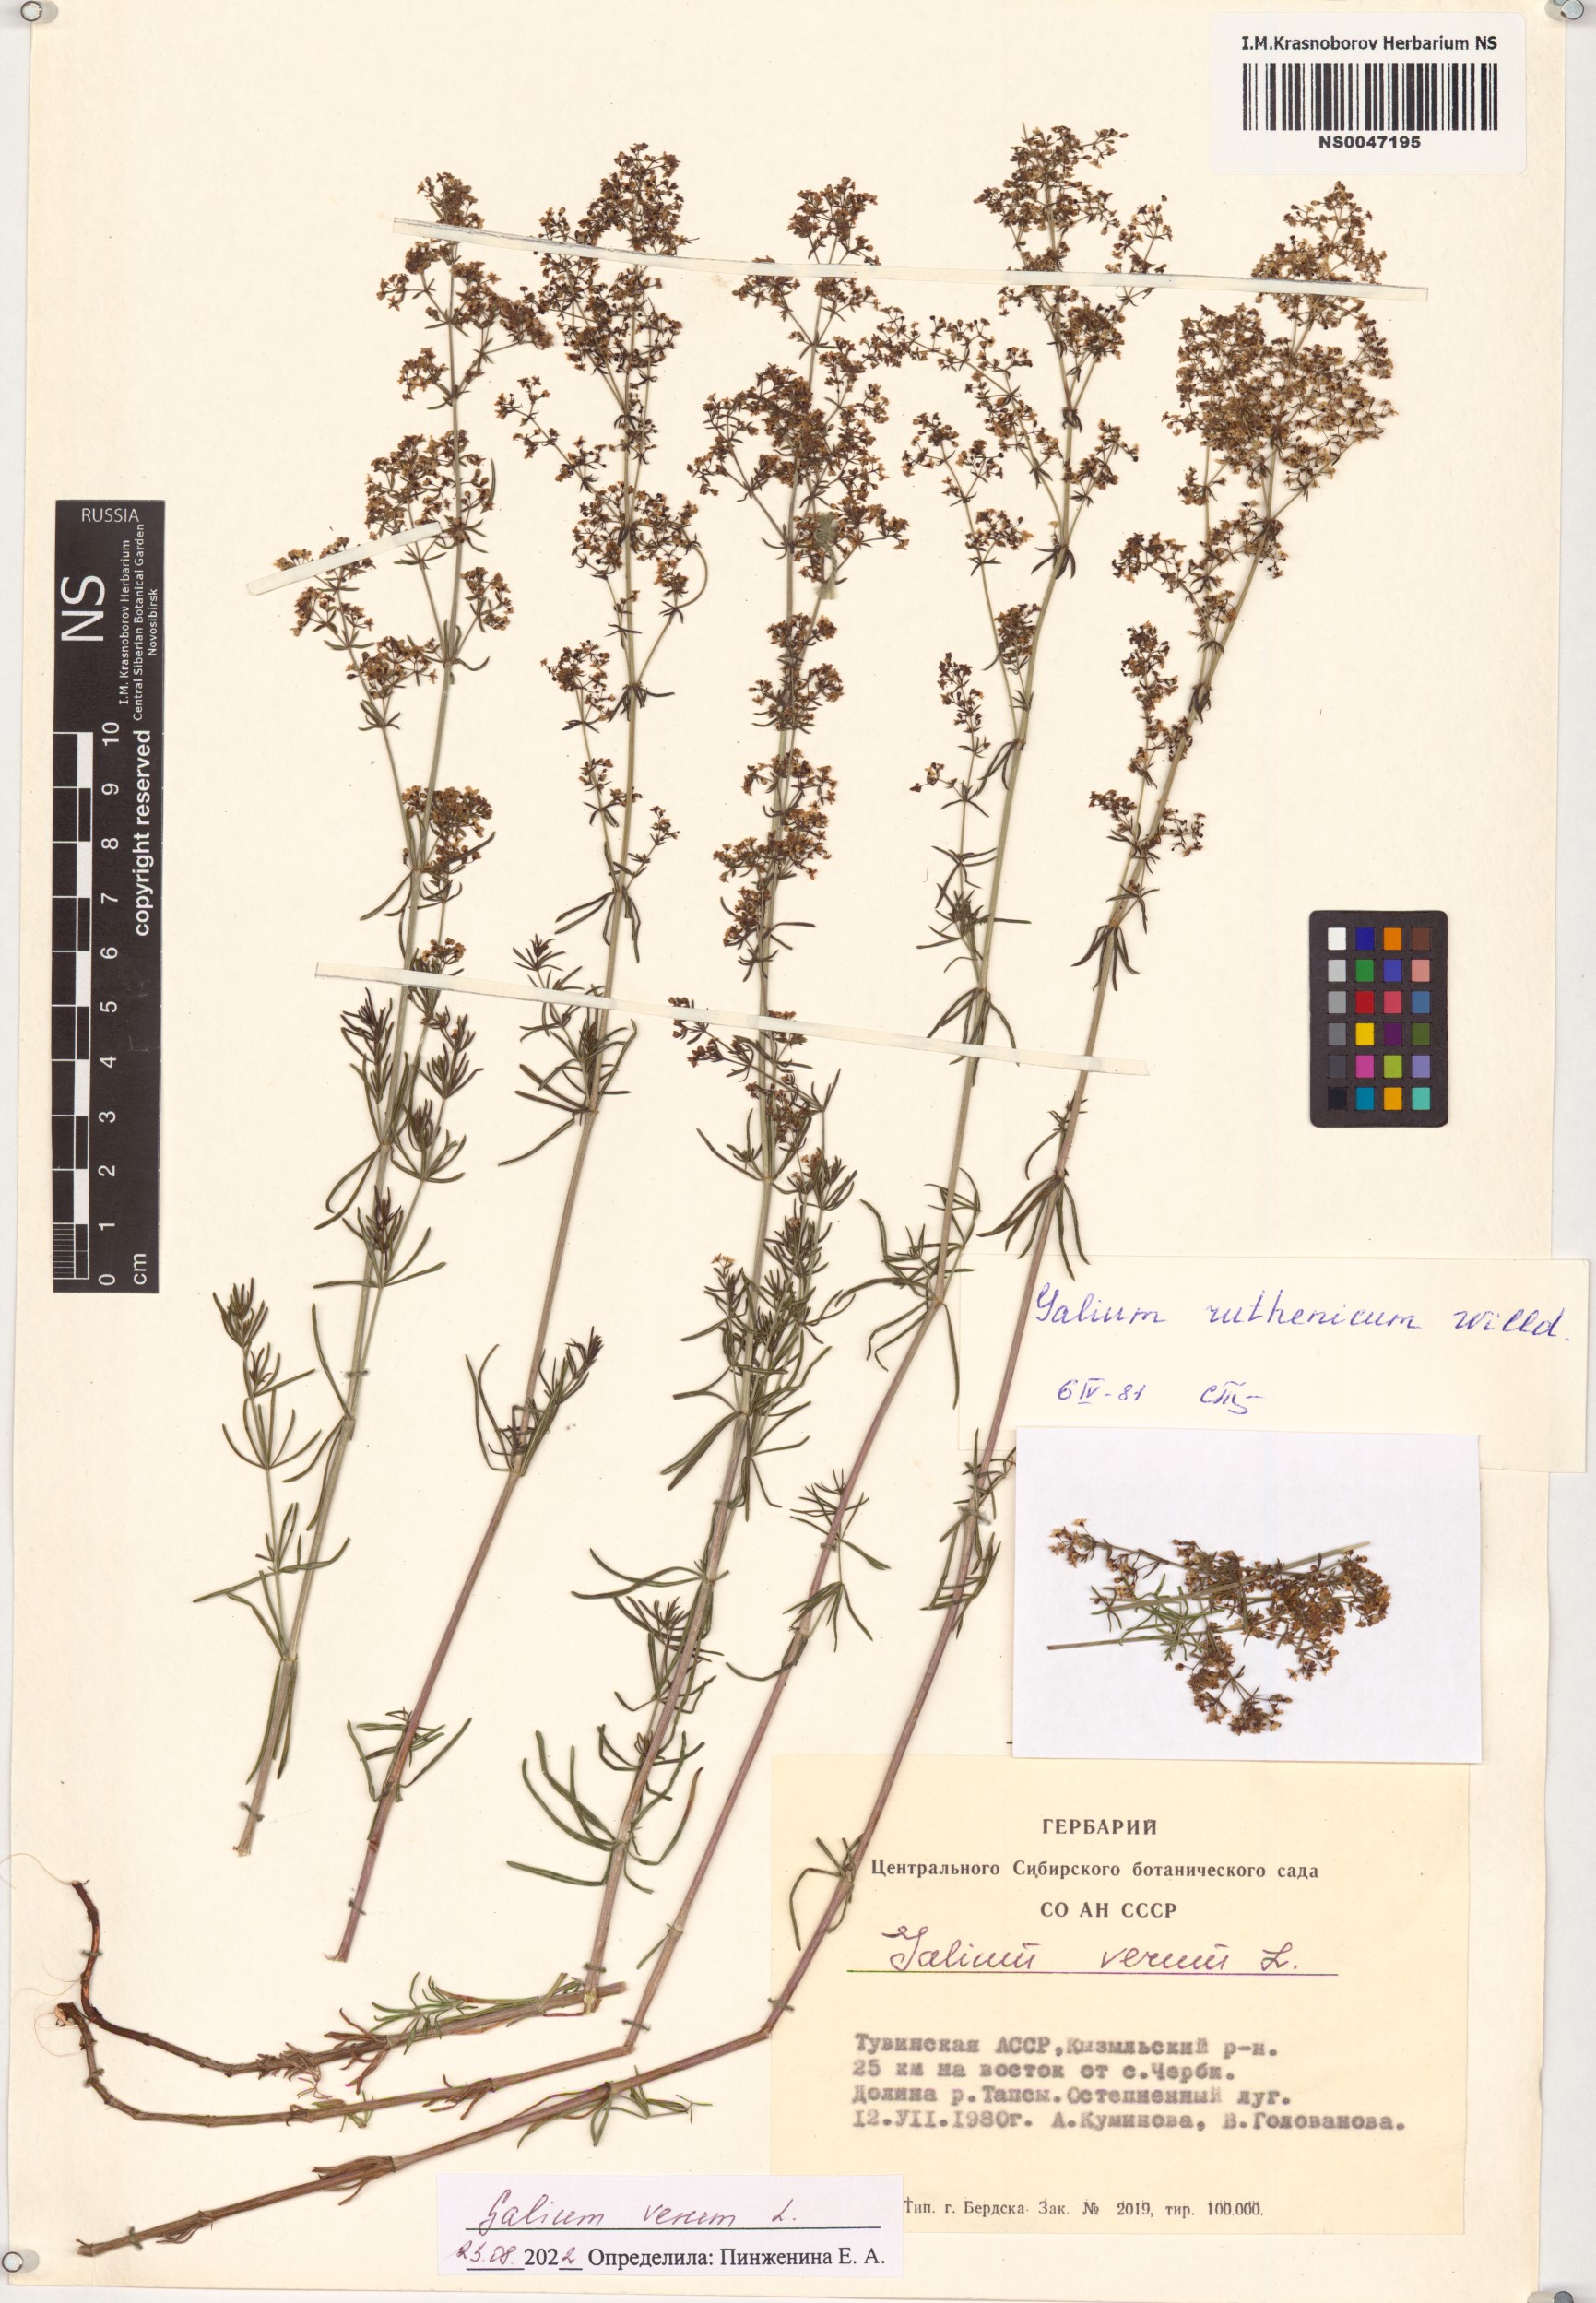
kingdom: Plantae
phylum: Tracheophyta
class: Magnoliopsida
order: Gentianales
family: Rubiaceae
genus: Galium
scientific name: Galium verum
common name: Lady's bedstraw
